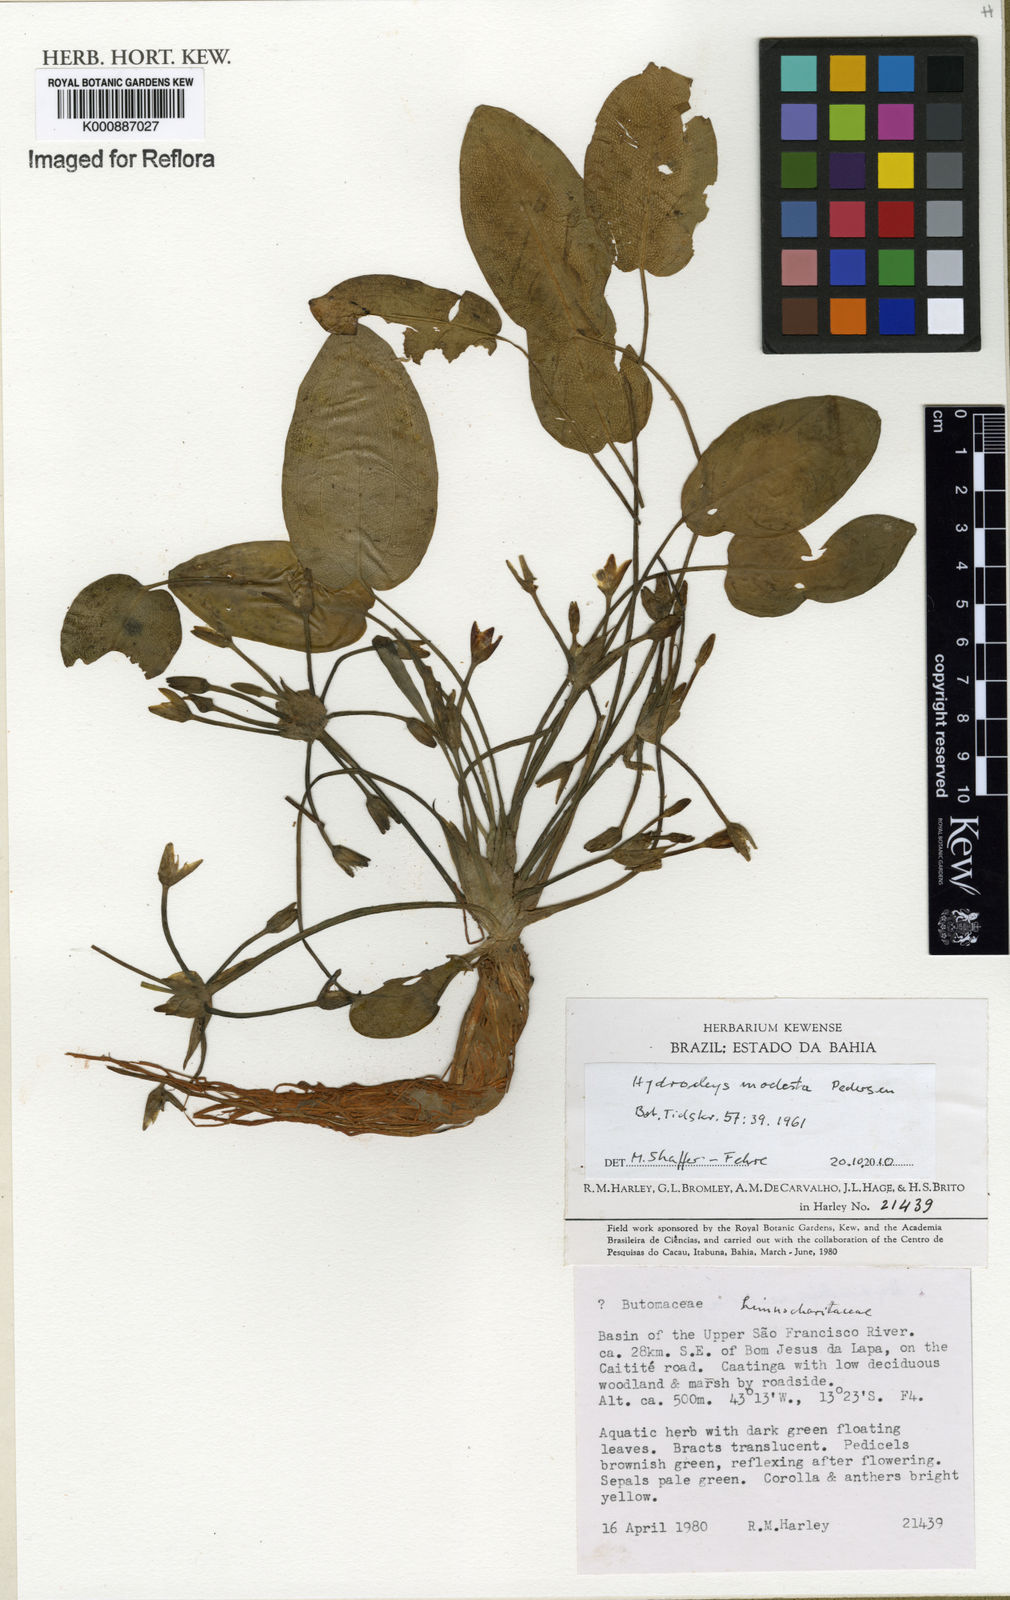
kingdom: Plantae
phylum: Tracheophyta
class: Liliopsida
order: Alismatales
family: Alismataceae
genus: Hydrocleys
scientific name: Hydrocleys modesta
